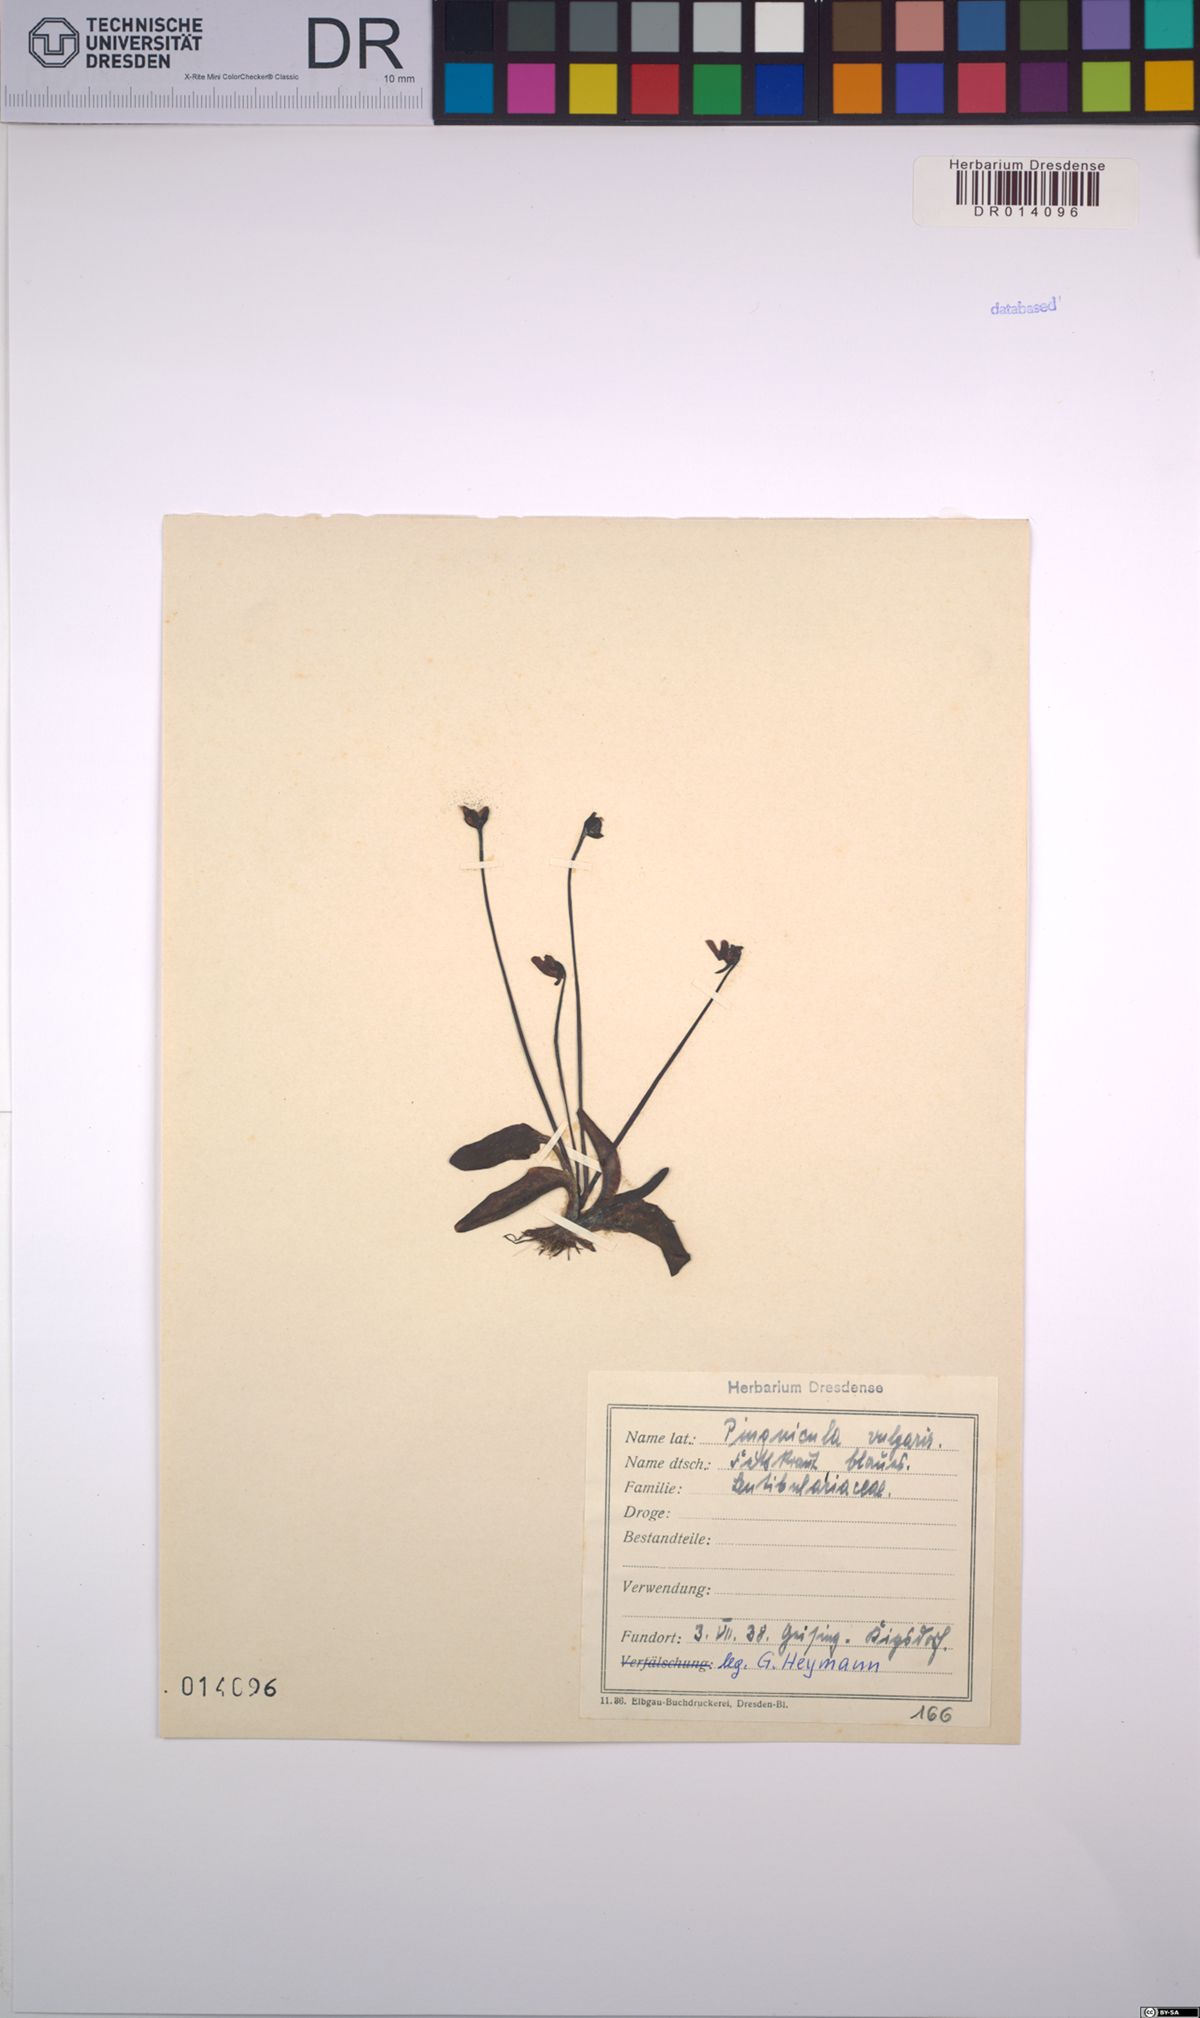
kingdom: Plantae
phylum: Tracheophyta
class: Magnoliopsida
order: Lamiales
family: Lentibulariaceae
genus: Pinguicula
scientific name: Pinguicula vulgaris
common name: Common butterwort
